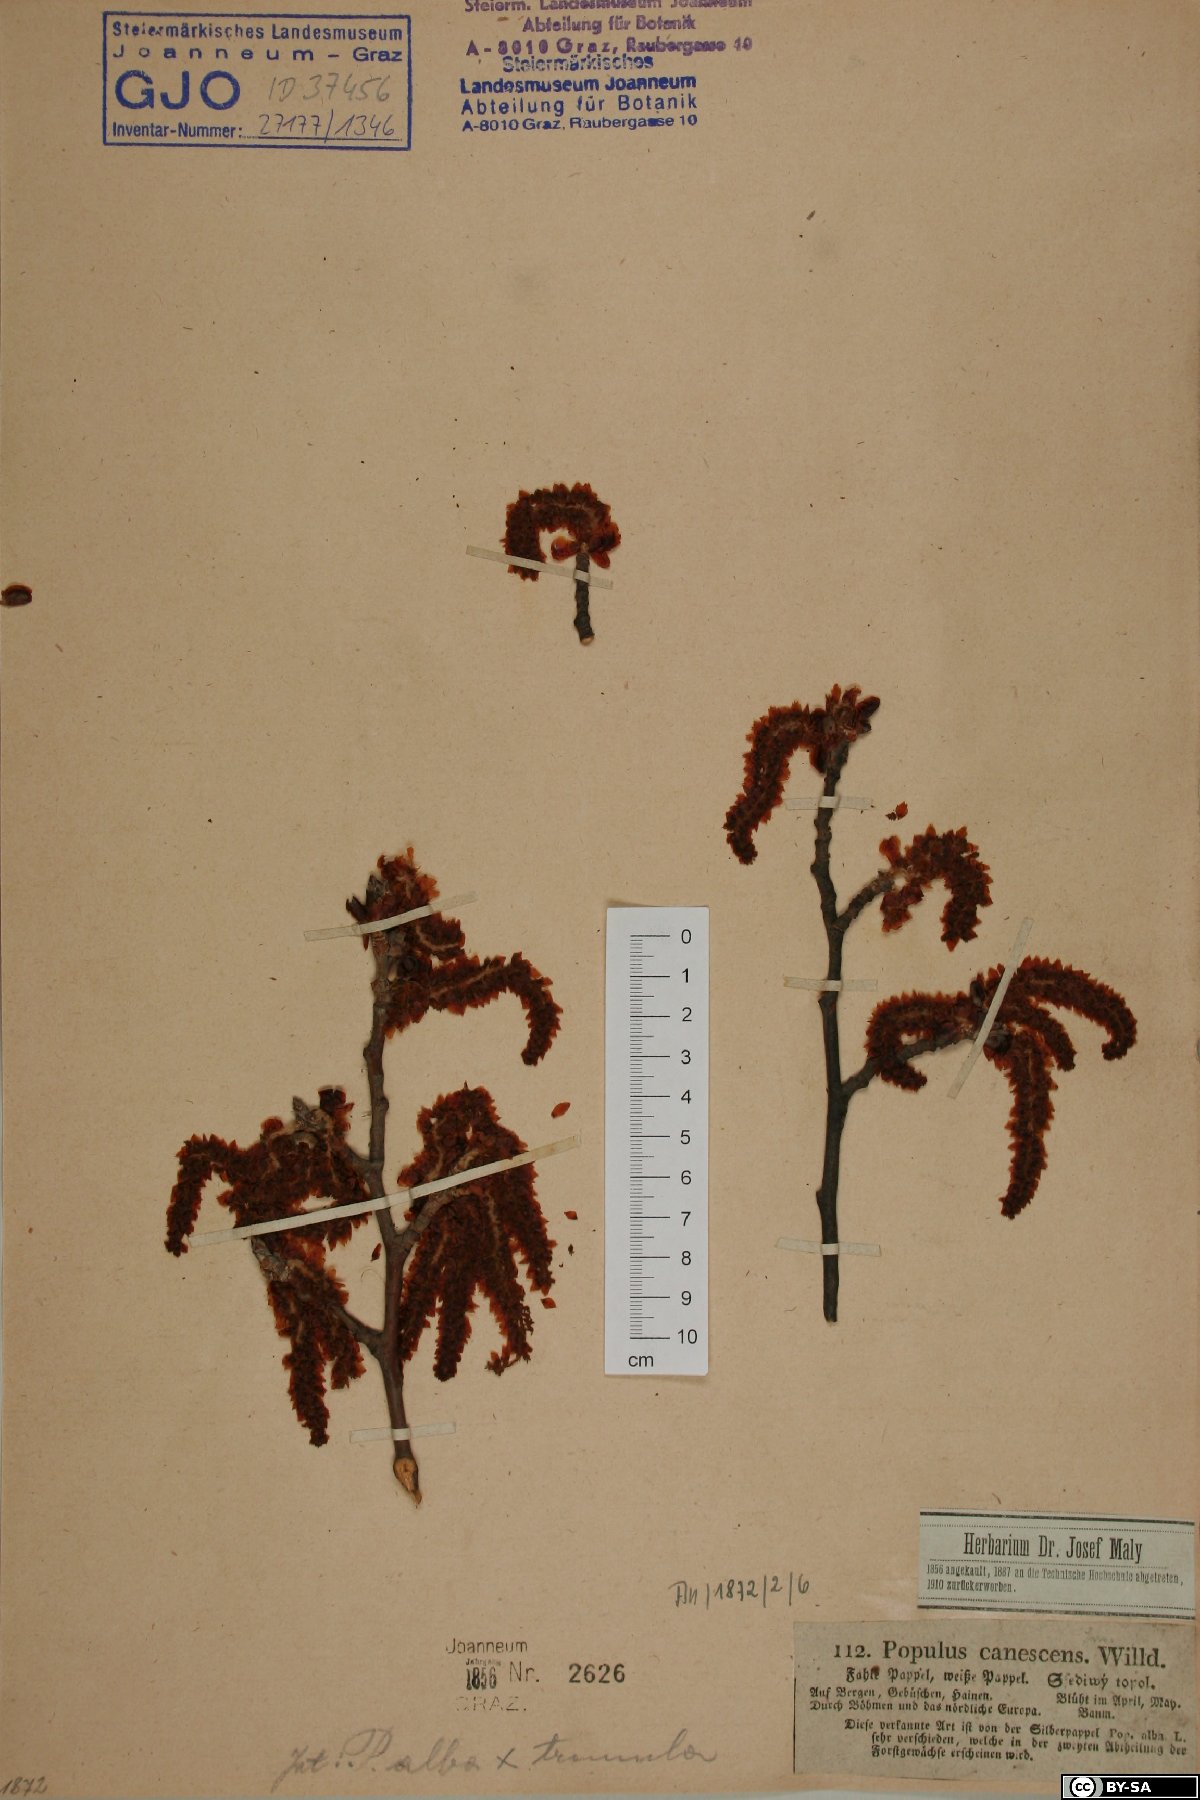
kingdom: Plantae
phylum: Tracheophyta
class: Magnoliopsida
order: Malpighiales
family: Salicaceae
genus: Populus
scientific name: Populus canescens
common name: Gray poplar
